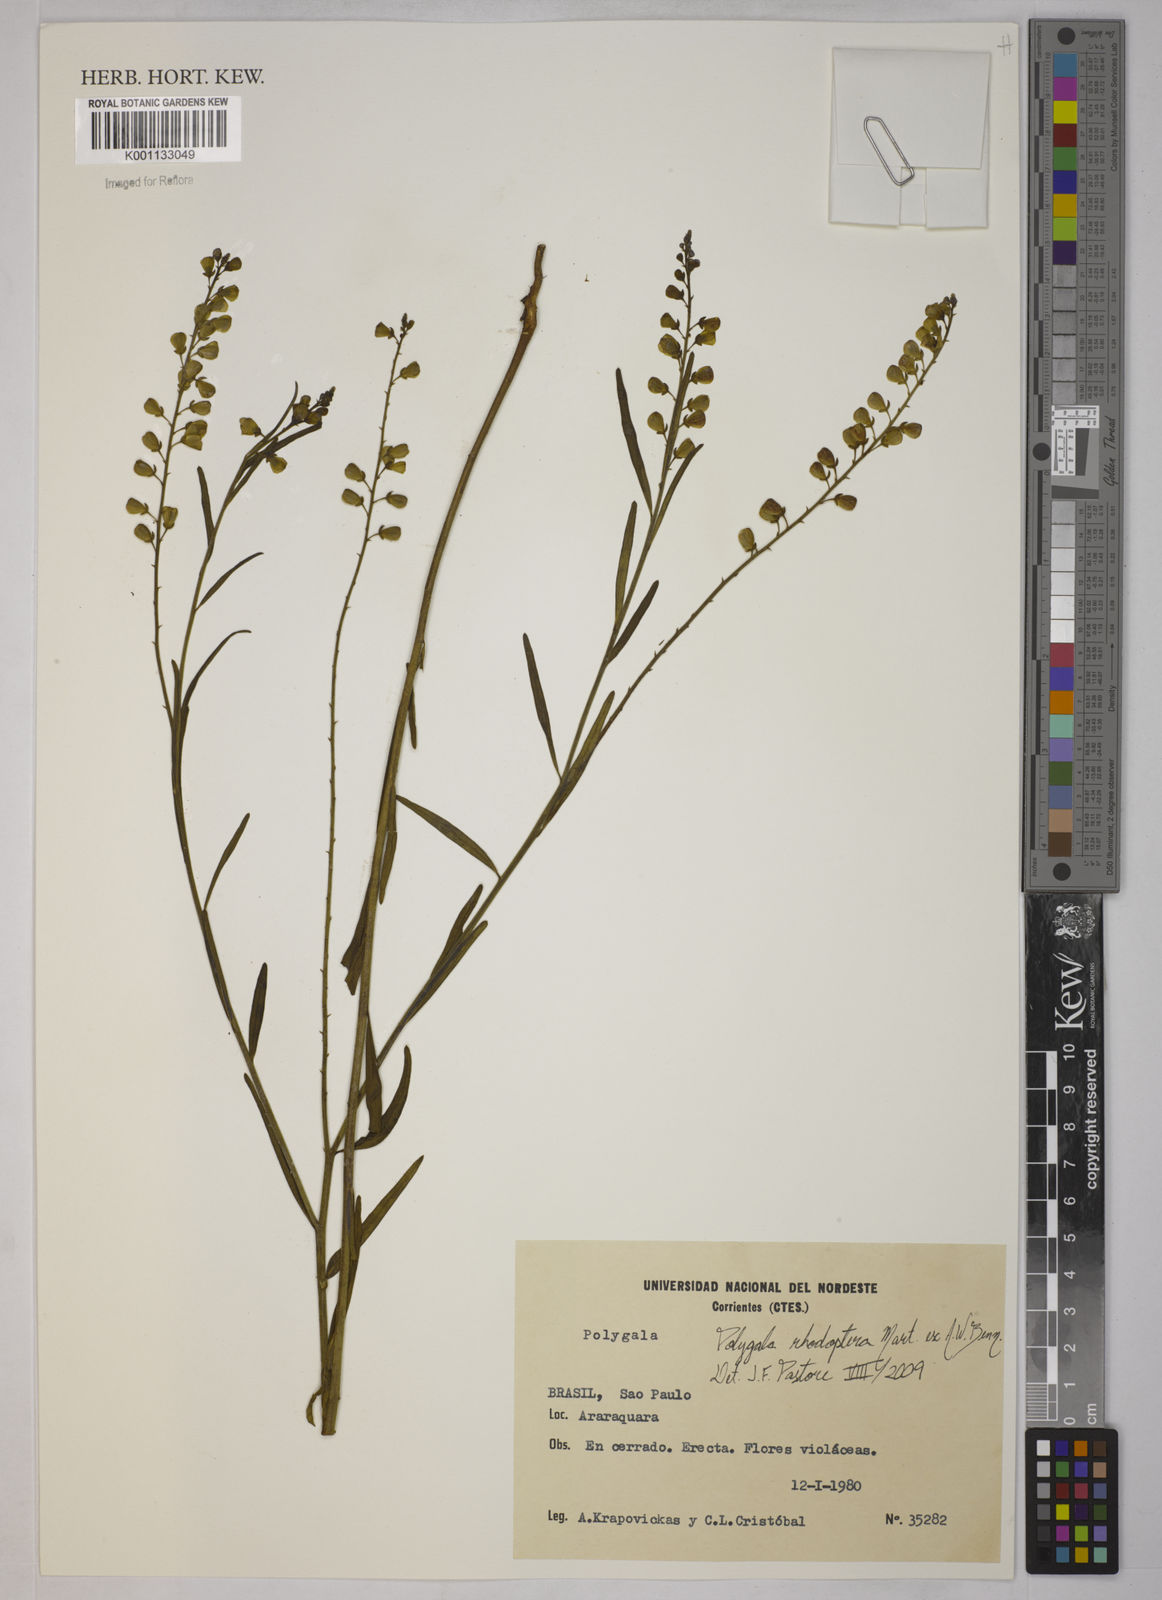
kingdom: Plantae
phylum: Tracheophyta
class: Magnoliopsida
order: Fabales
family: Polygalaceae
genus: Asemeia
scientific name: Asemeia rhodoptera
